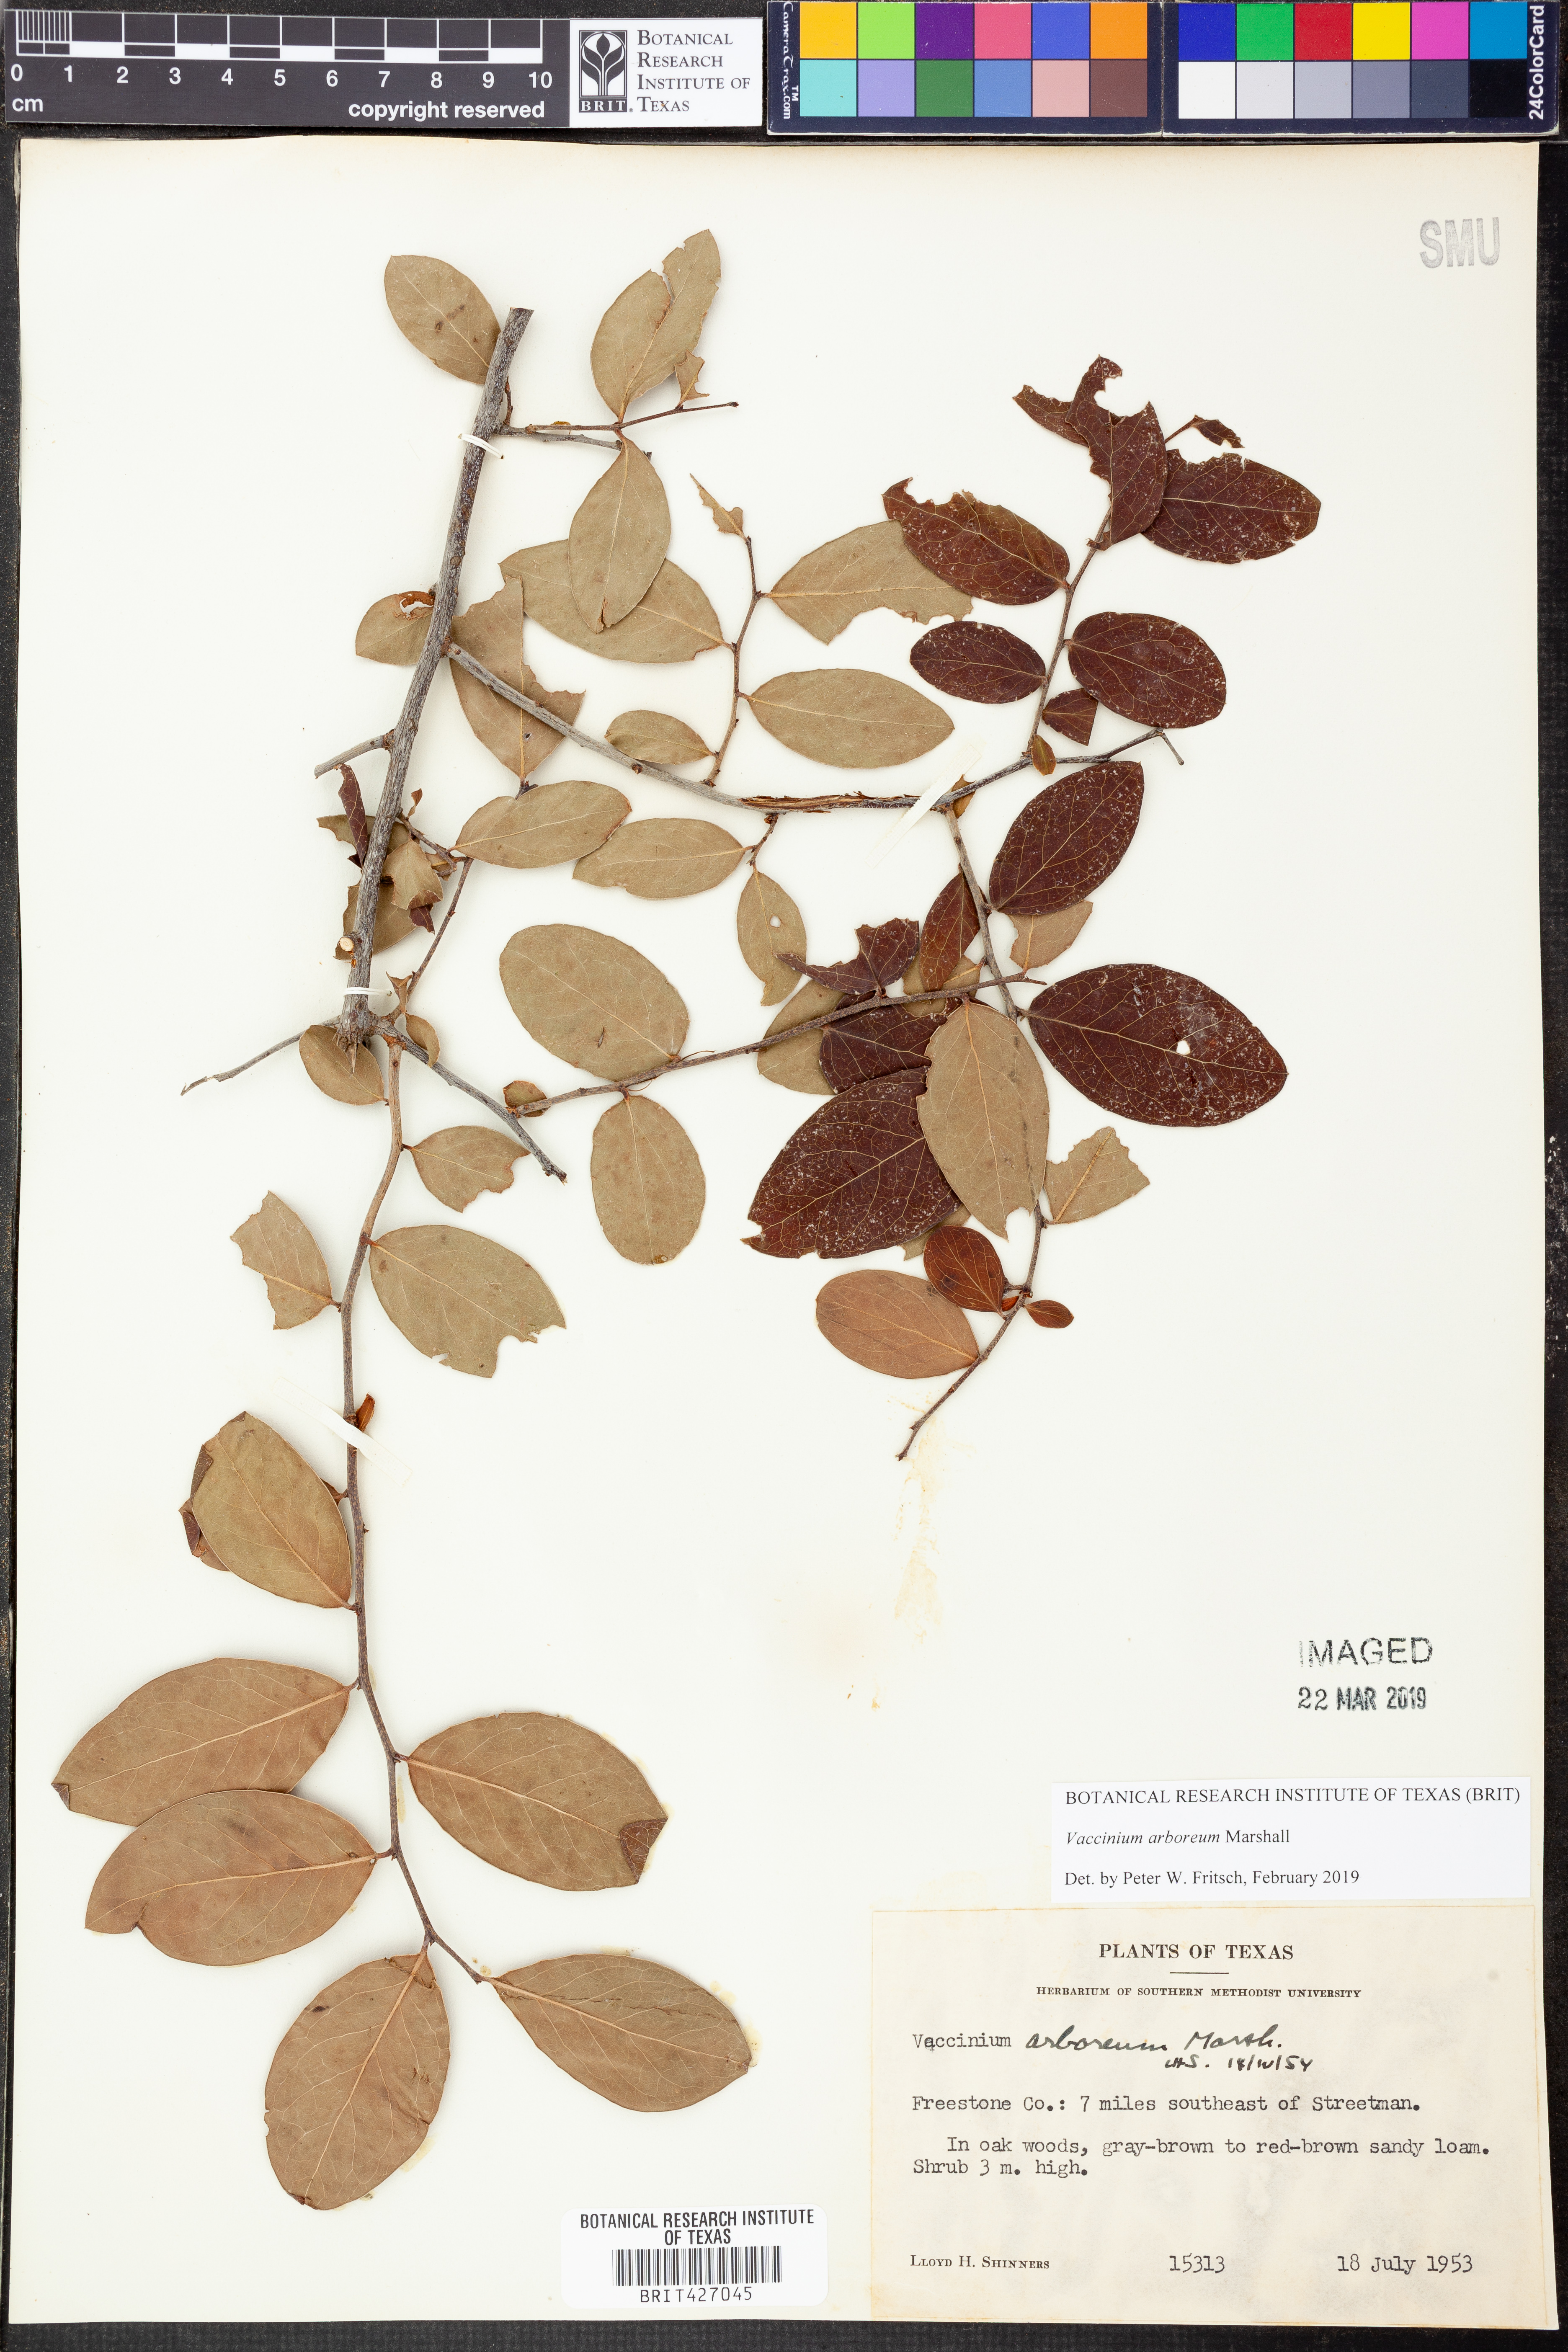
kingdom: Plantae
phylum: Tracheophyta
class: Magnoliopsida
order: Ericales
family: Ericaceae
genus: Vaccinium
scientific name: Vaccinium arboreum
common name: Farkleberry
